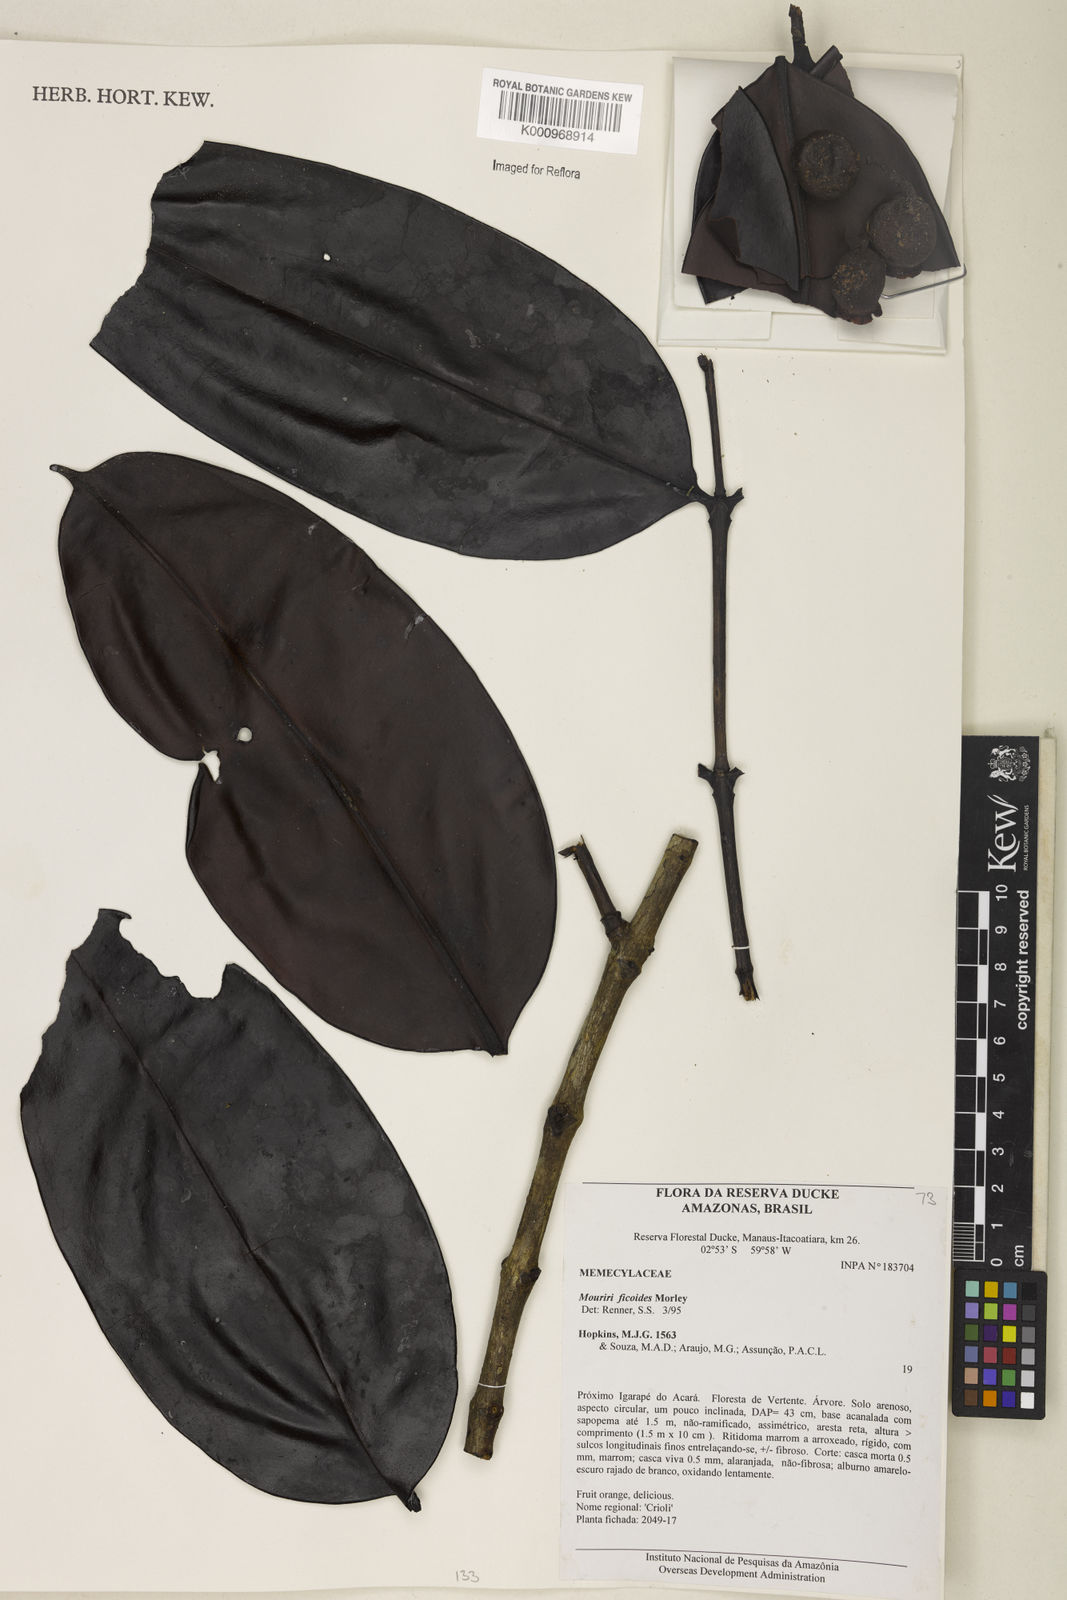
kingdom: Plantae
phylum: Tracheophyta
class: Magnoliopsida
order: Myrtales
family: Melastomataceae
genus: Mouriri
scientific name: Mouriri ficoides
